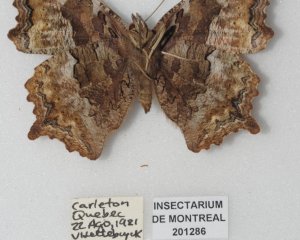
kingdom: Animalia
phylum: Arthropoda
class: Insecta
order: Lepidoptera
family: Nymphalidae
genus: Polygonia
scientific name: Polygonia vaualbum
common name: Compton Tortoiseshell
